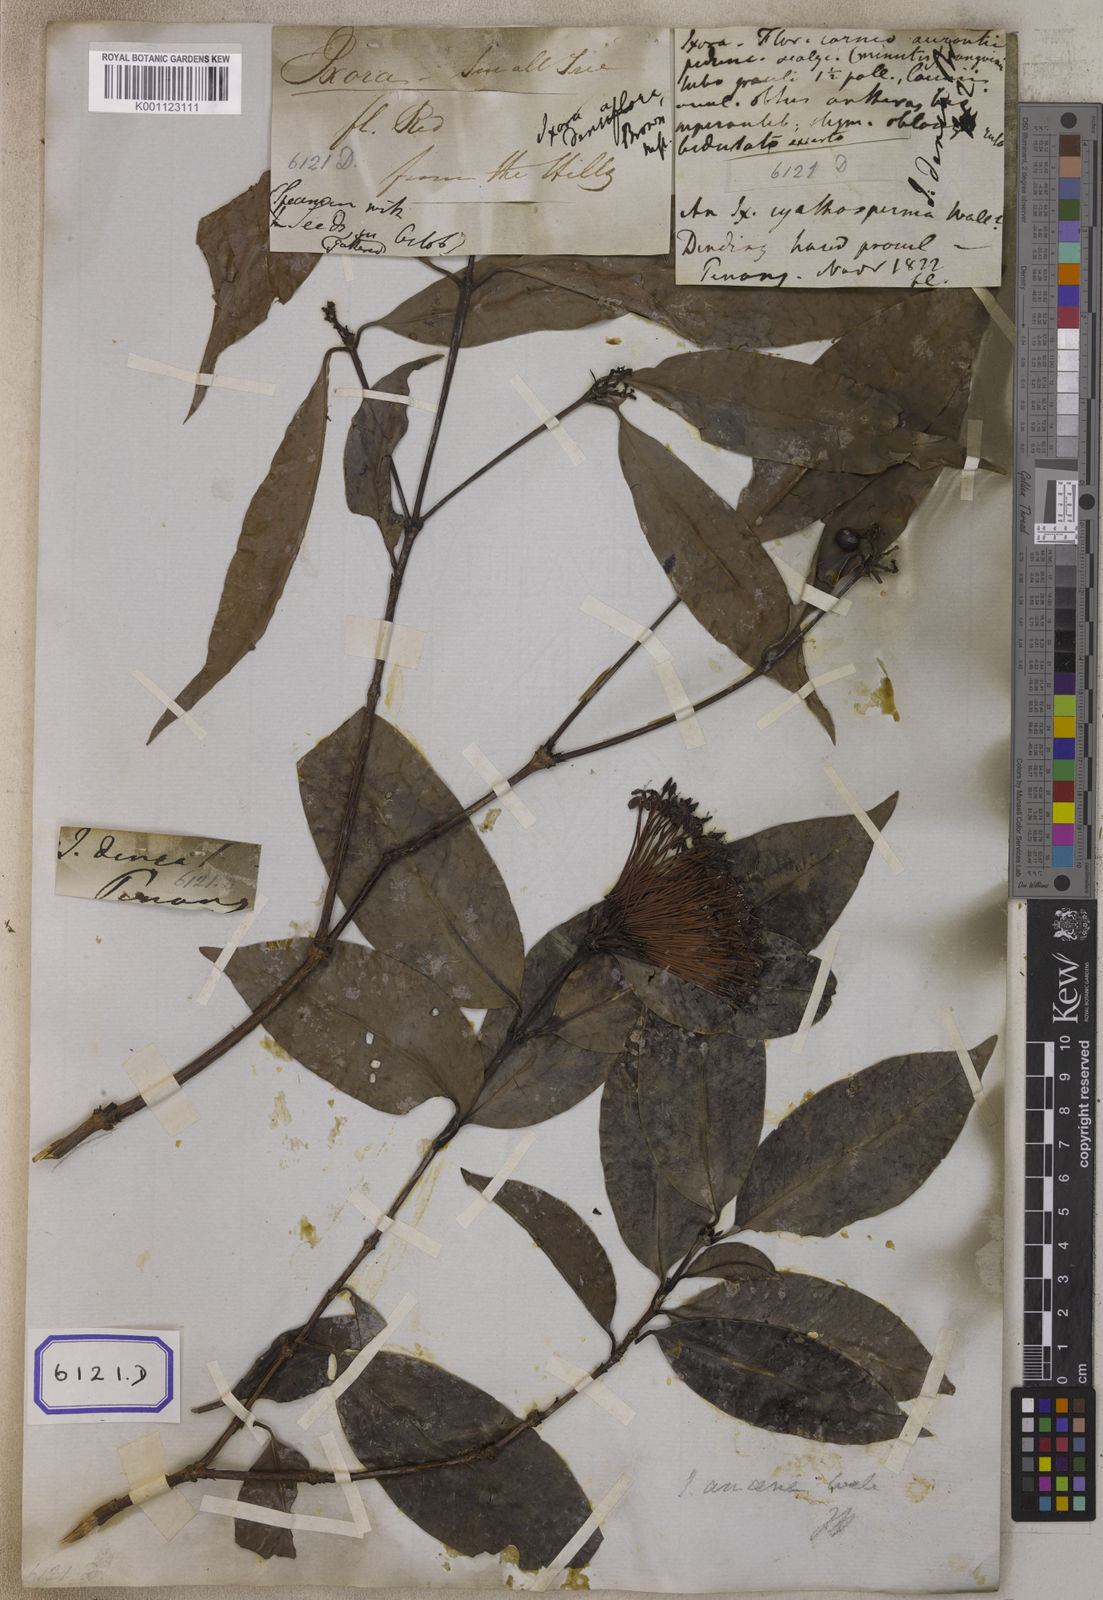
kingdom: Plantae
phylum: Tracheophyta
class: Magnoliopsida
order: Gentianales
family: Rubiaceae
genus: Ixora
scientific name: Ixora
